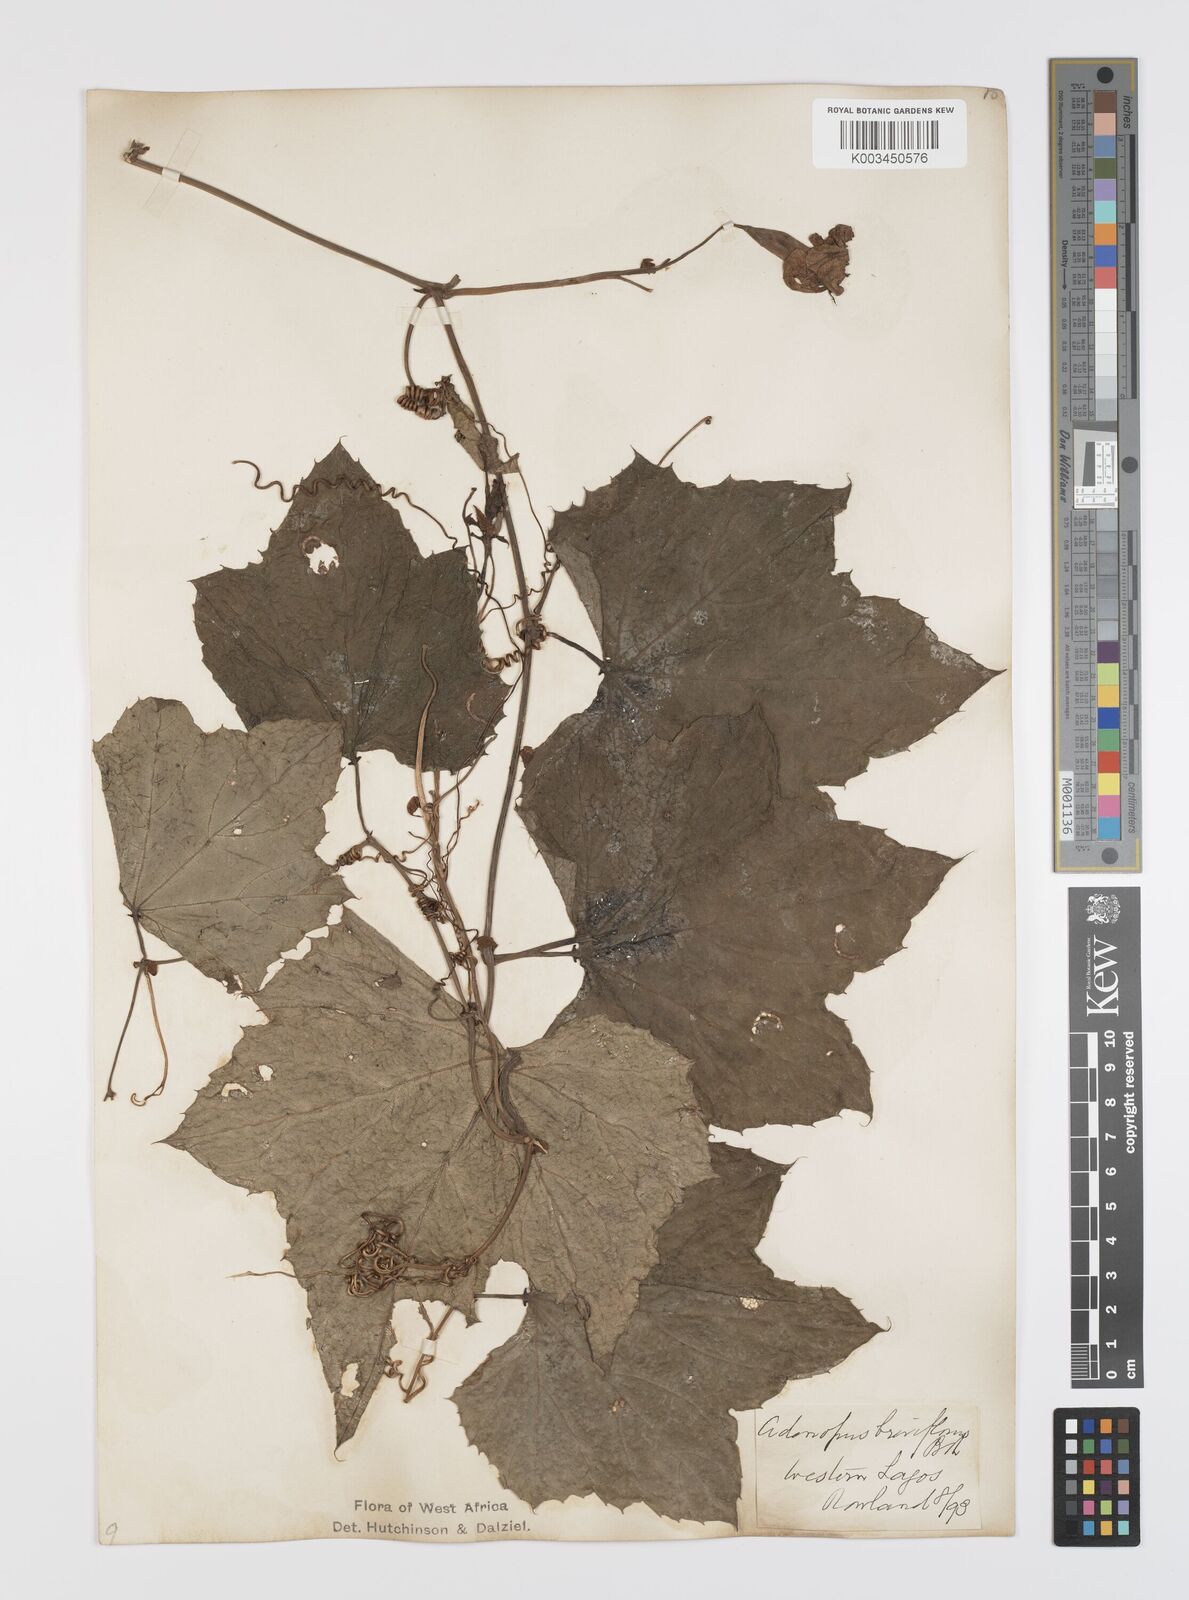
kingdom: Plantae
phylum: Tracheophyta
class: Magnoliopsida
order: Cucurbitales
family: Cucurbitaceae
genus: Lagenaria
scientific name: Lagenaria breviflora
